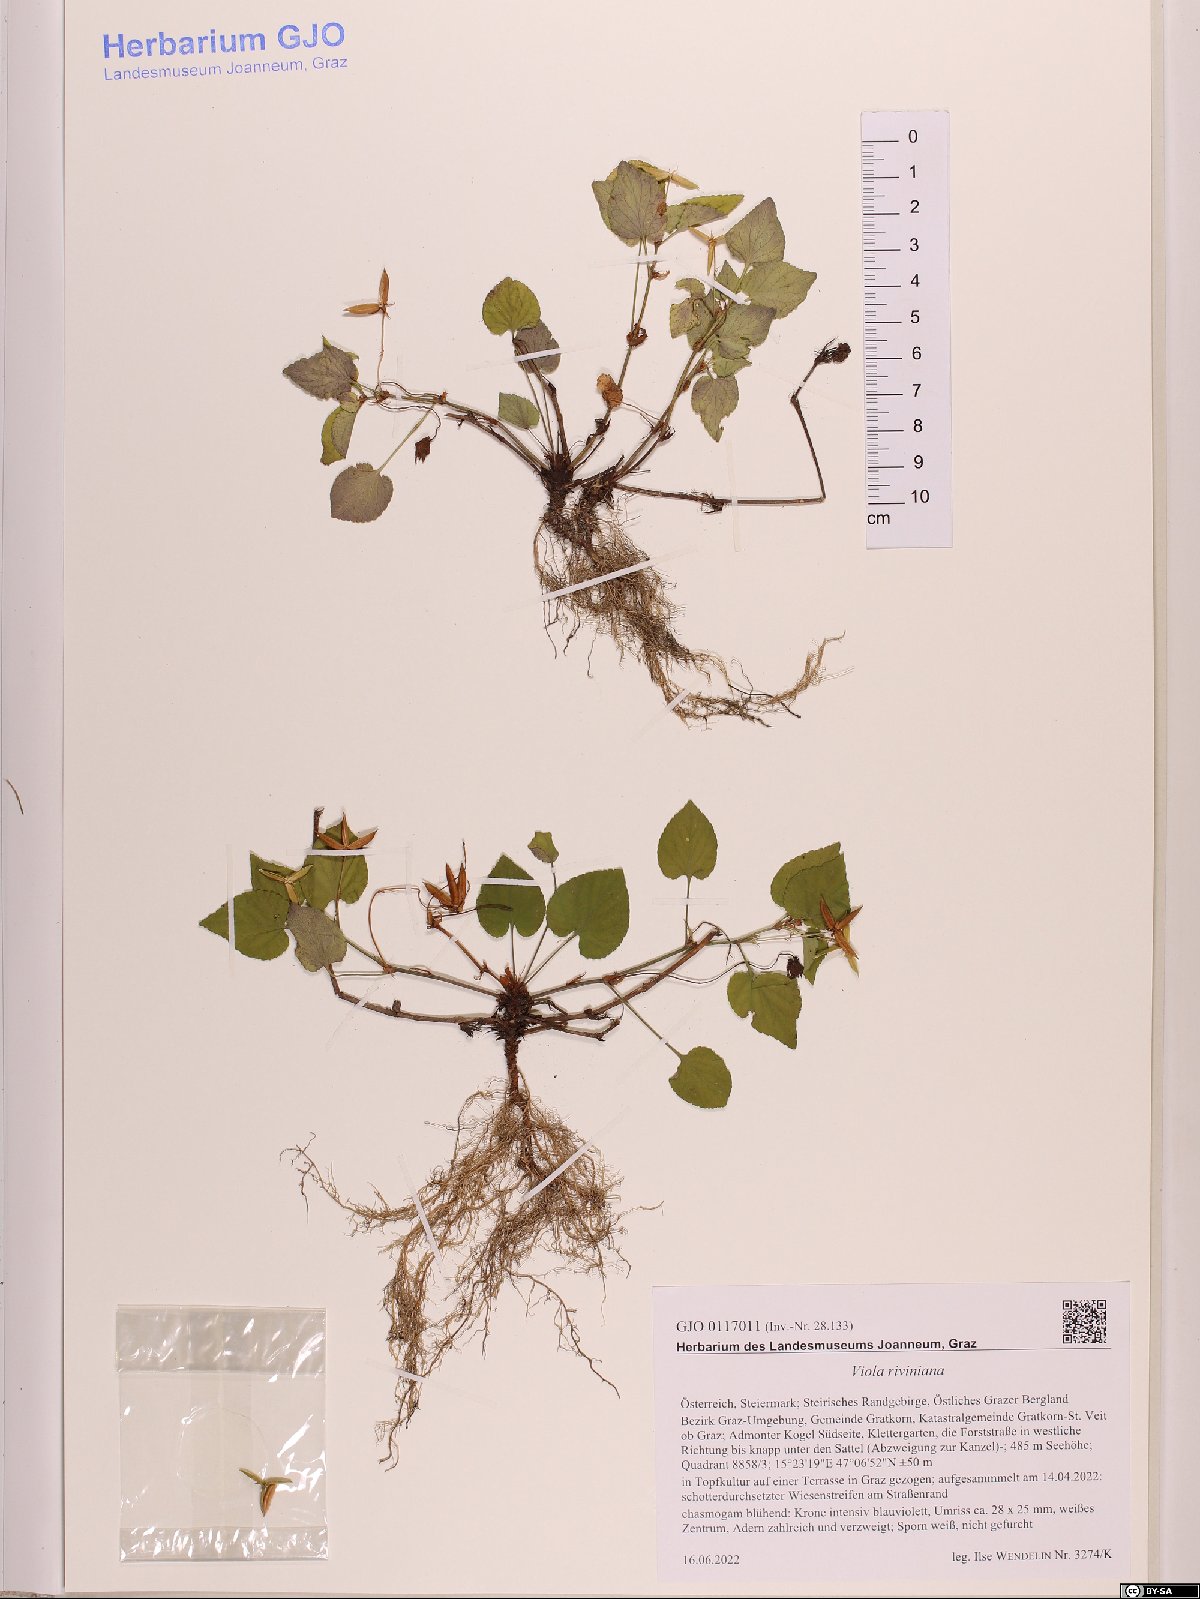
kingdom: Plantae
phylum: Tracheophyta
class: Magnoliopsida
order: Malpighiales
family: Violaceae
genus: Viola
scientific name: Viola riviniana
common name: Common dog-violet
